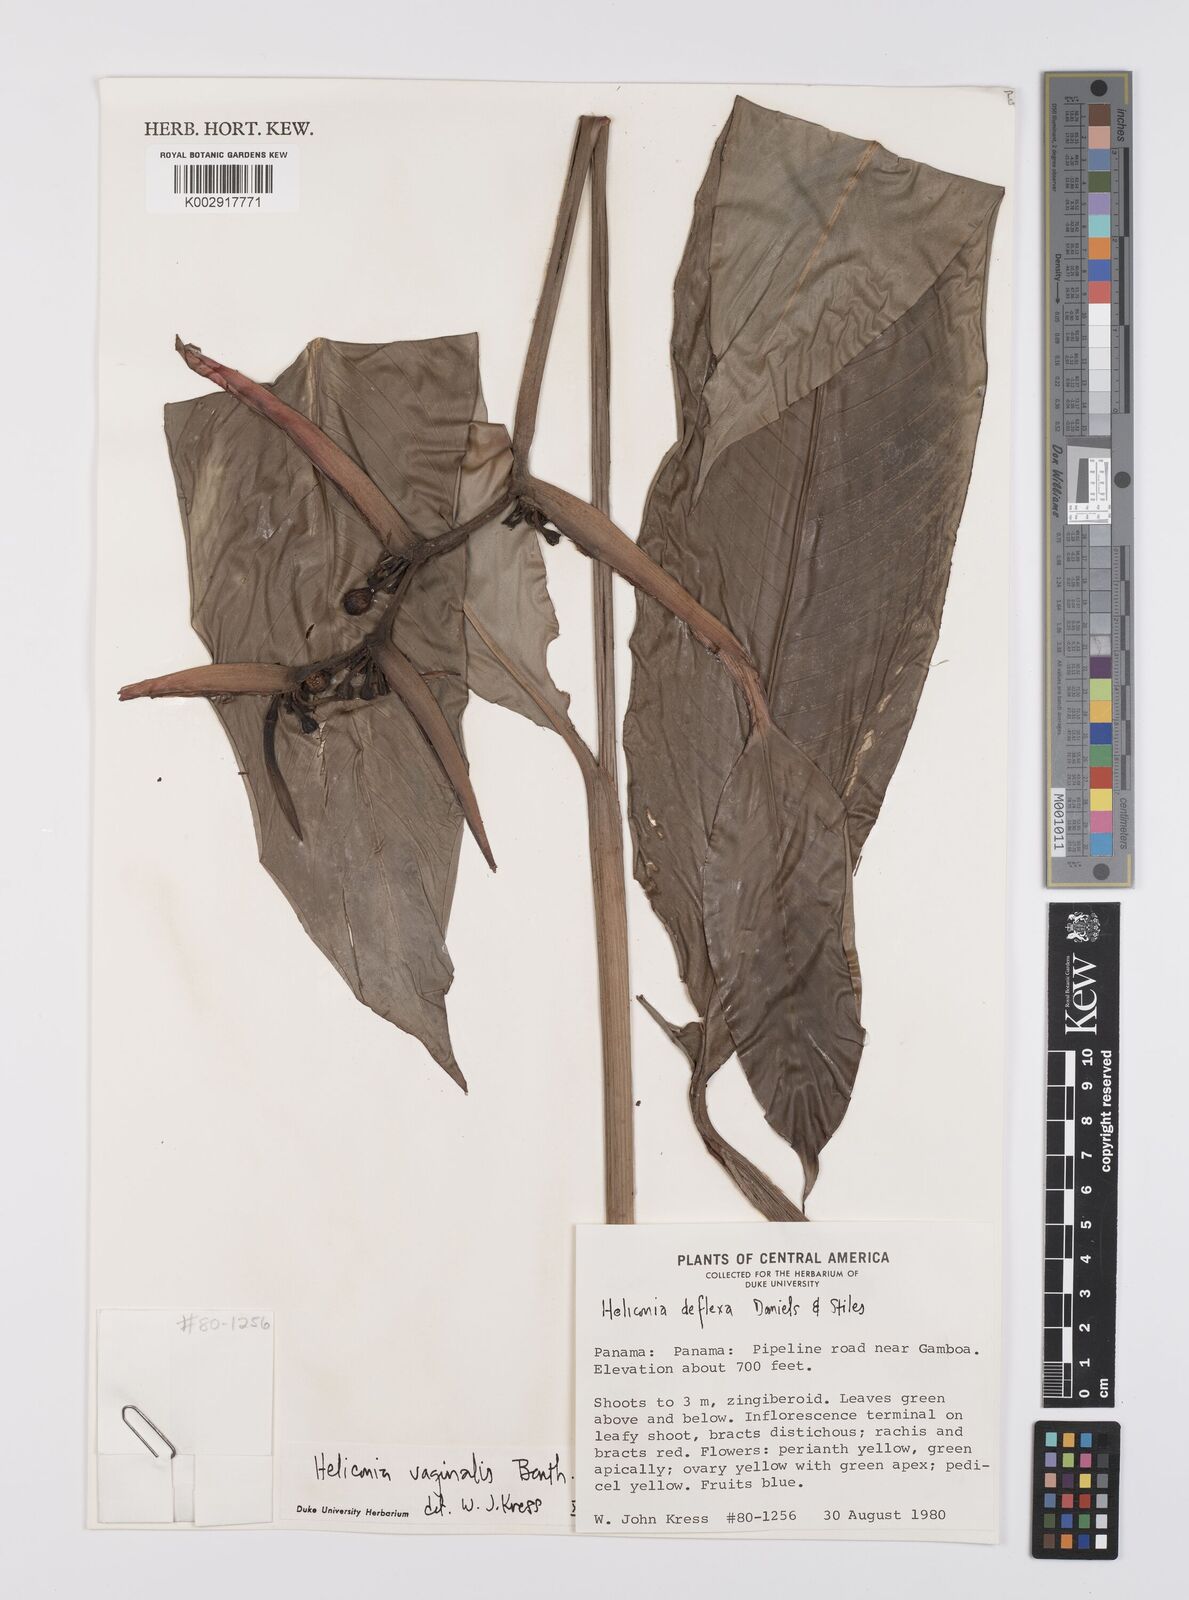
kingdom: Plantae
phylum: Tracheophyta
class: Liliopsida
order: Zingiberales
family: Heliconiaceae
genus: Heliconia
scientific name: Heliconia vaginalis
